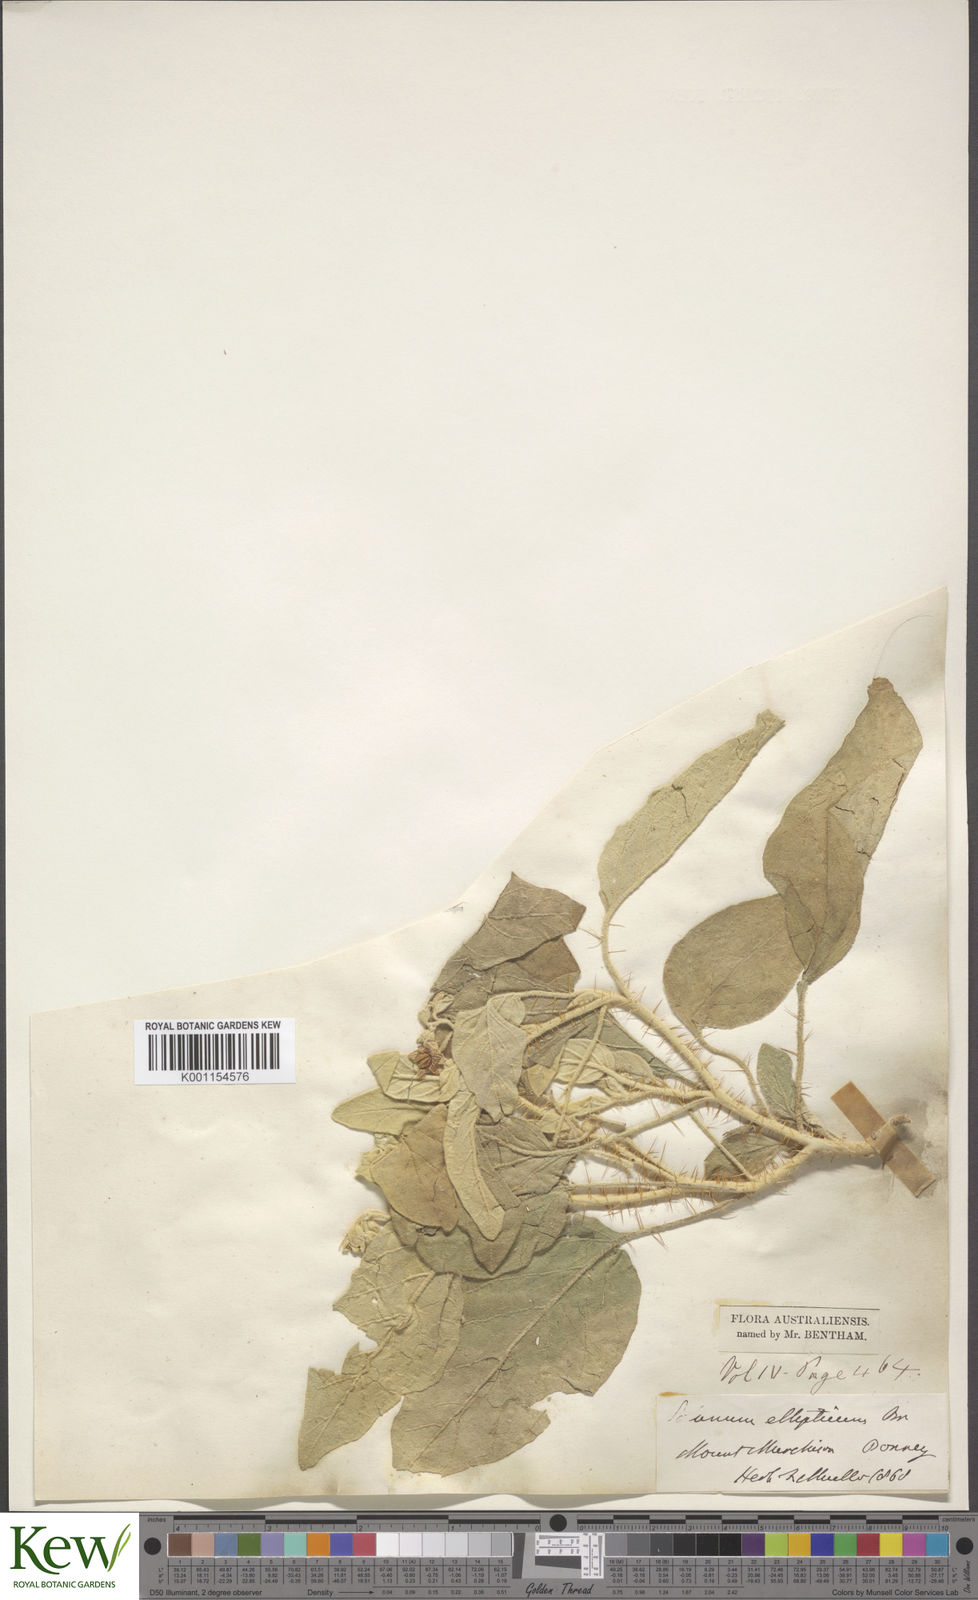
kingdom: Plantae
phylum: Tracheophyta
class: Magnoliopsida
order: Solanales
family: Solanaceae
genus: Solanum
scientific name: Solanum ellipticum
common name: Potato-bush
